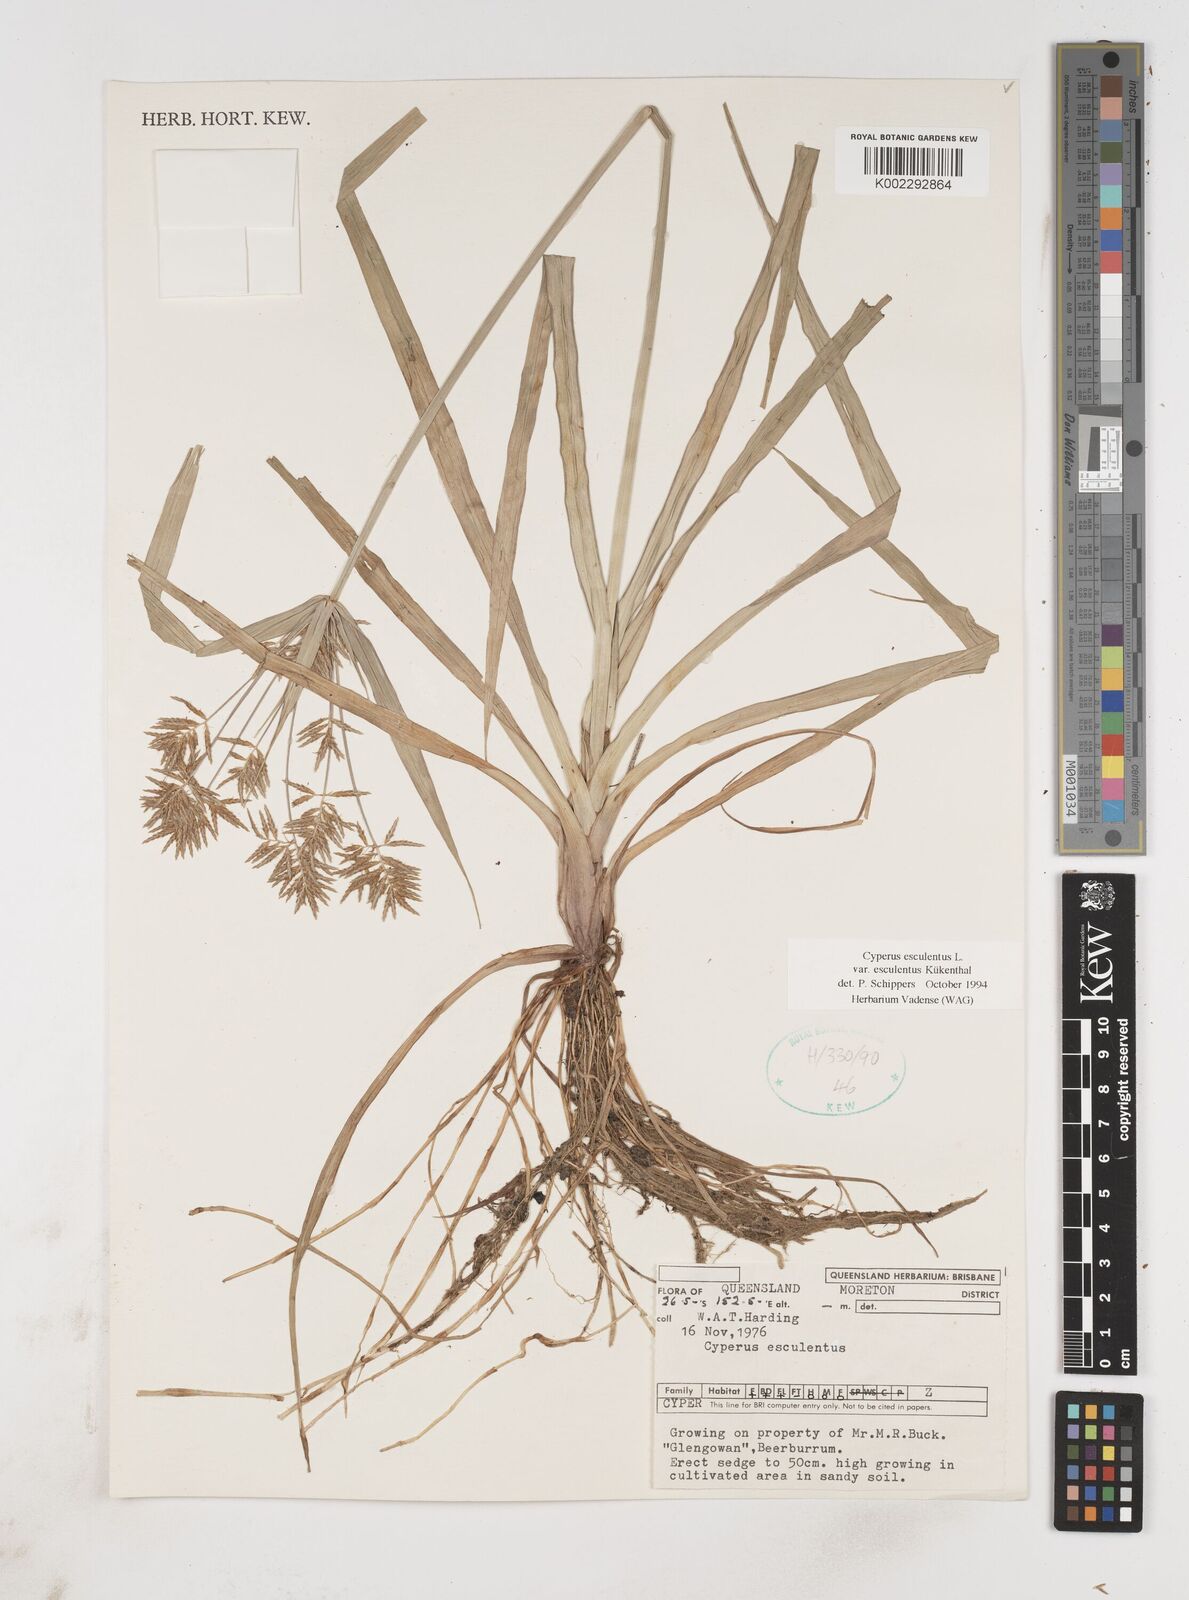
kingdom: Plantae
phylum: Tracheophyta
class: Liliopsida
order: Poales
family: Cyperaceae
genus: Cyperus
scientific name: Cyperus esculentus
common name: Yellow nutsedge
